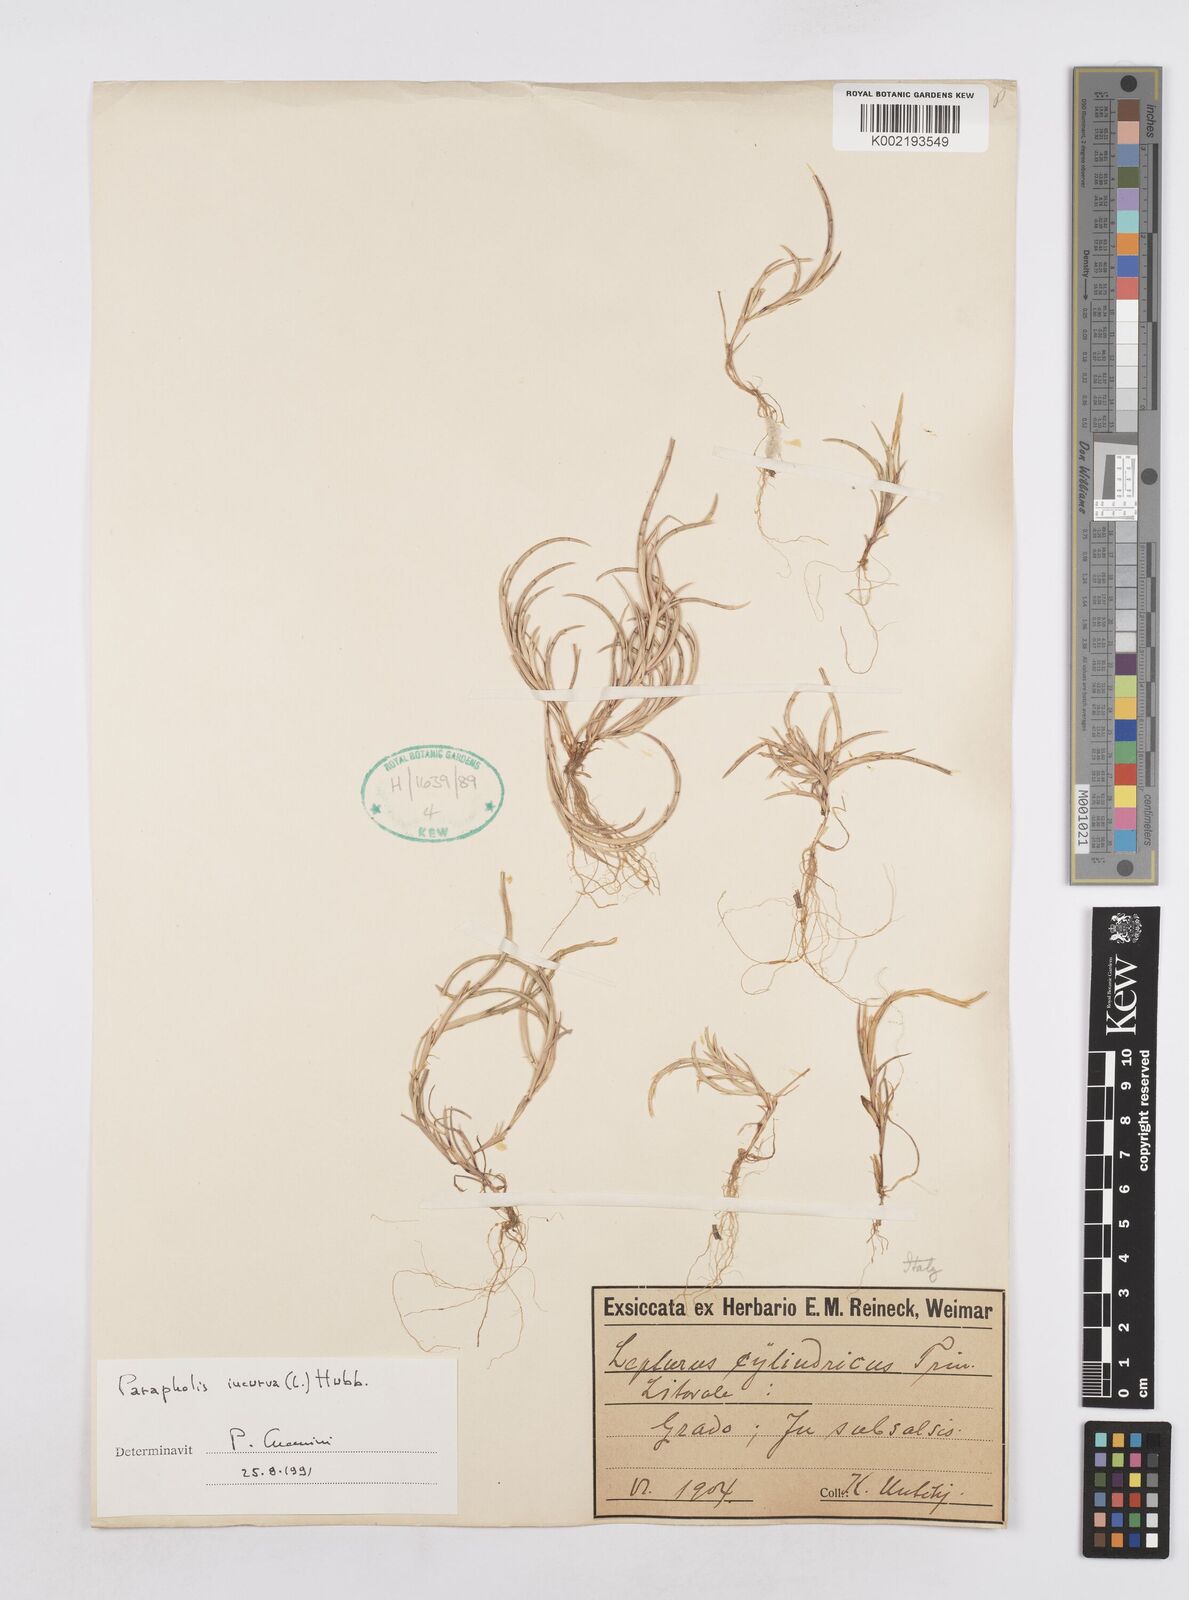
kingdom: Plantae
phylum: Tracheophyta
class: Liliopsida
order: Poales
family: Poaceae
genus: Parapholis
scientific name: Parapholis incurva
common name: Curved sicklegrass
